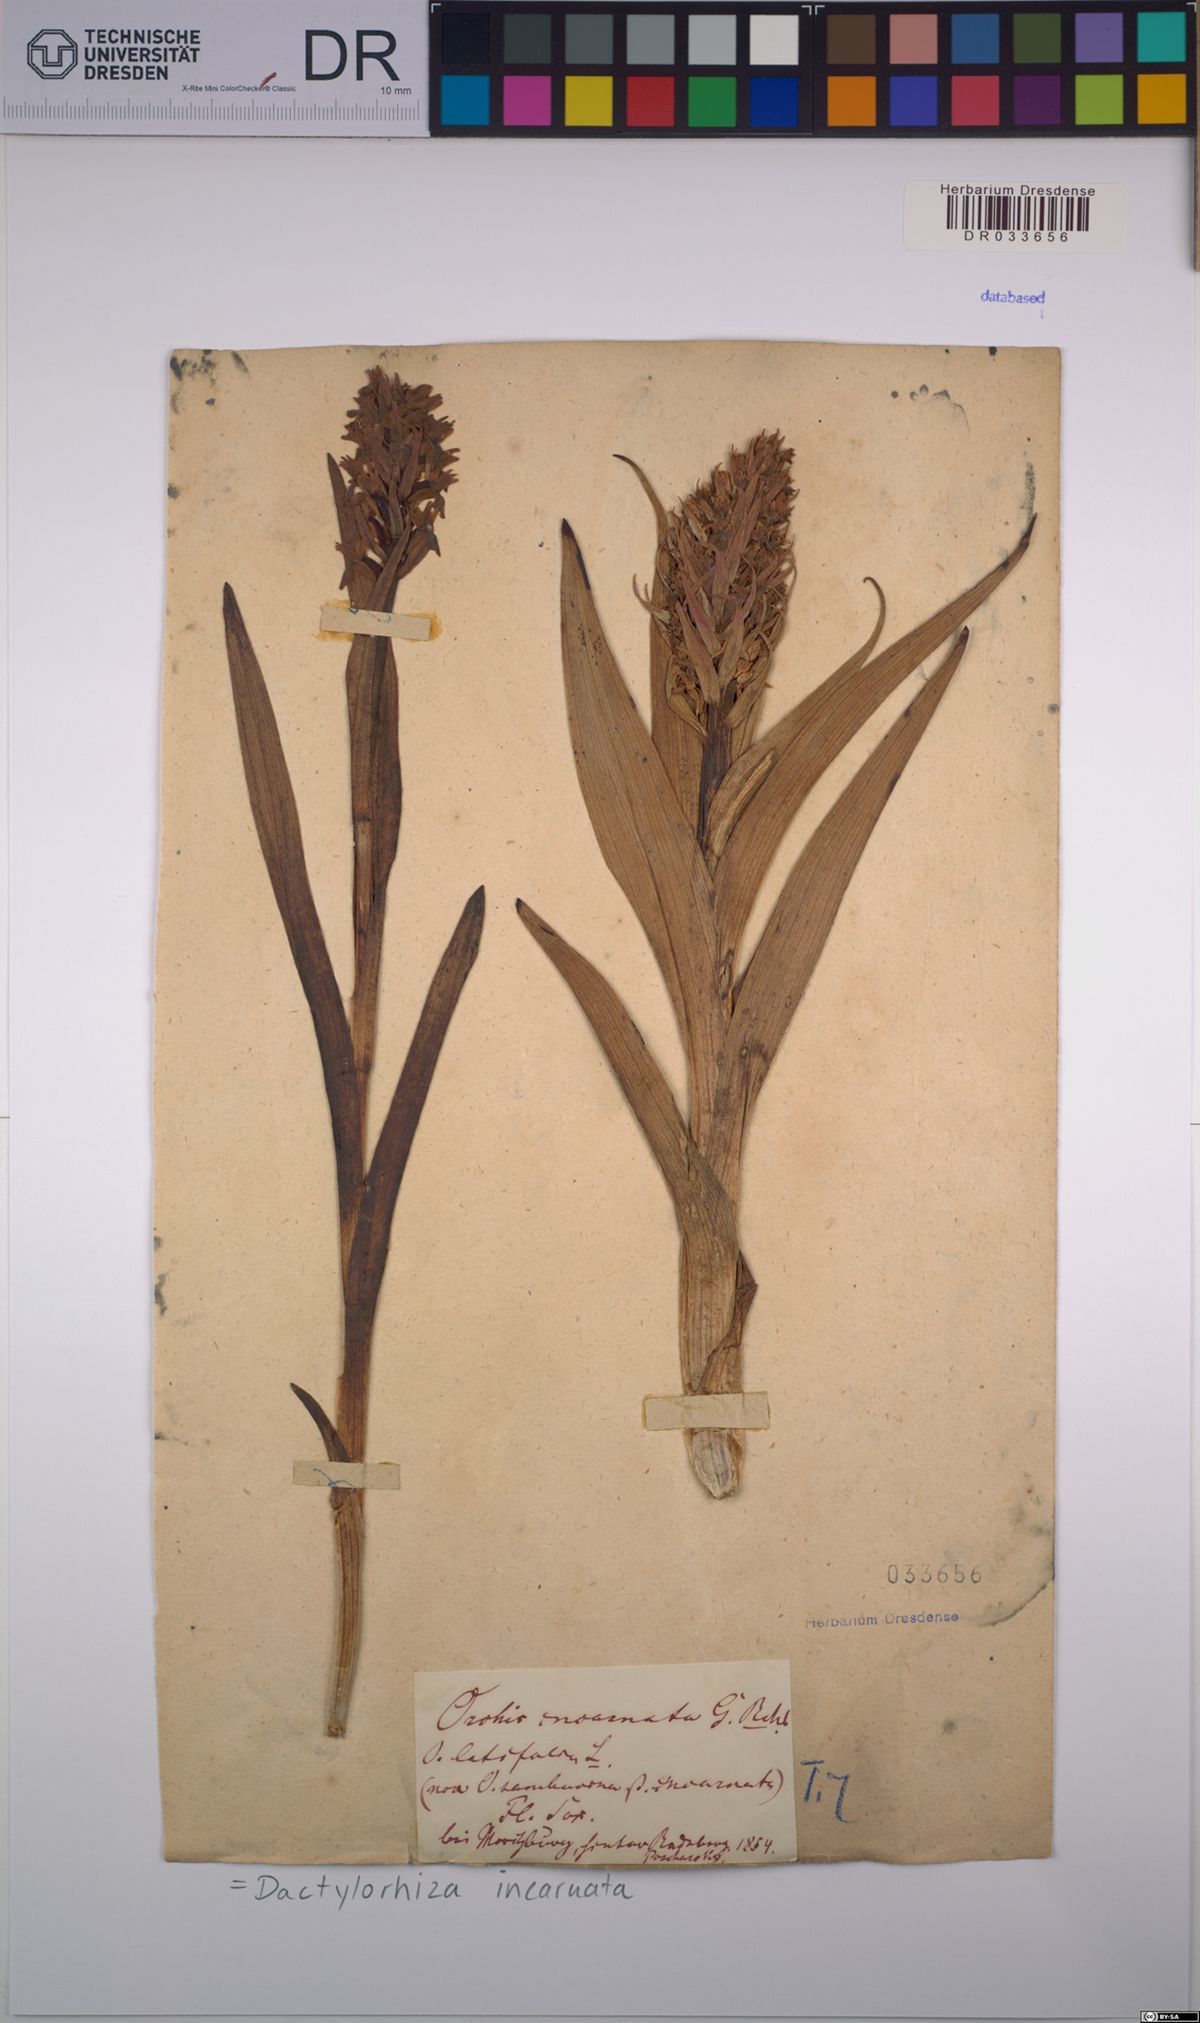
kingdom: Plantae
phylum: Tracheophyta
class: Liliopsida
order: Asparagales
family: Orchidaceae
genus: Dactylorhiza
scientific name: Dactylorhiza incarnata
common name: Early marsh-orchid
